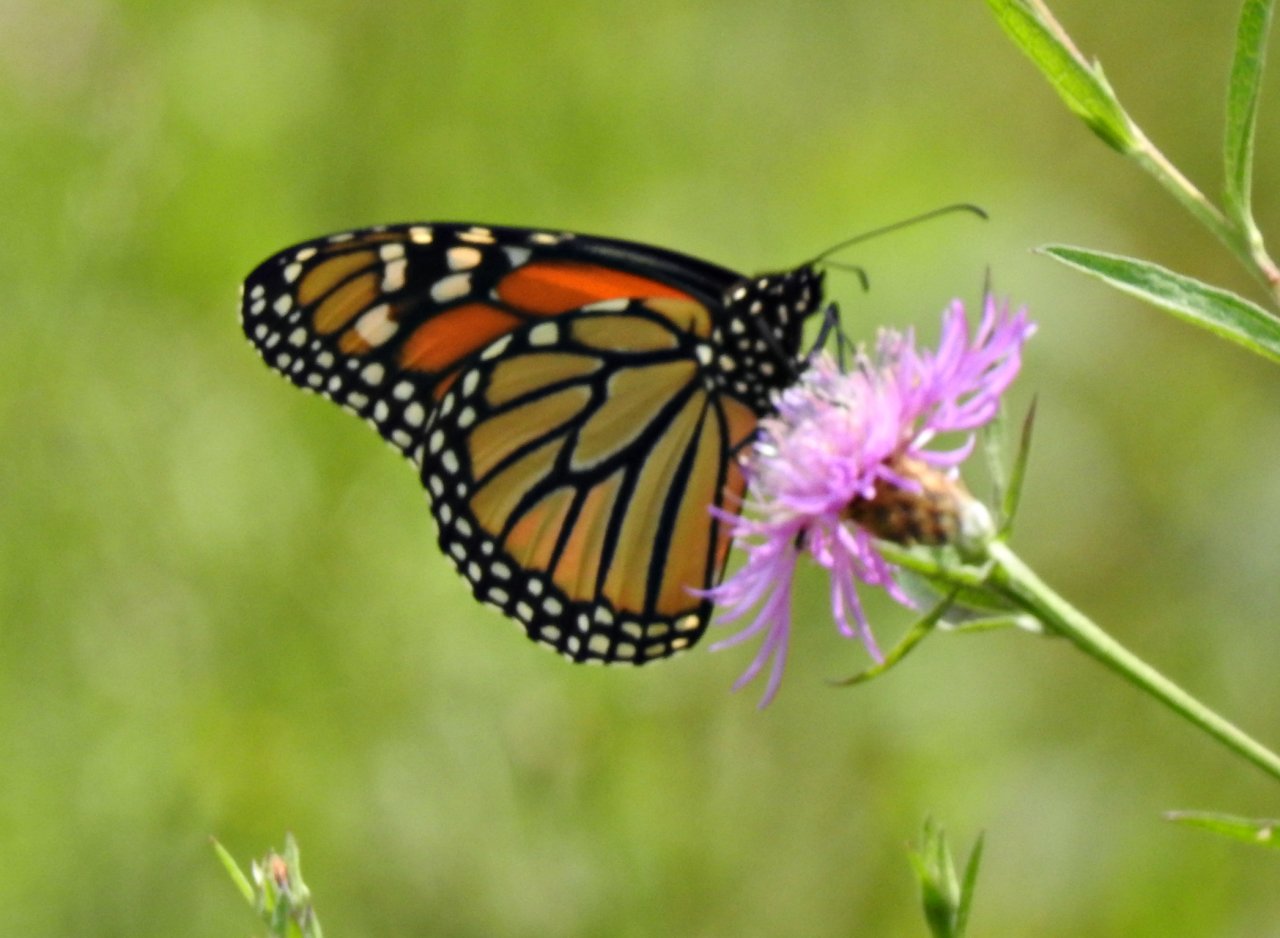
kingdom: Animalia
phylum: Arthropoda
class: Insecta
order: Lepidoptera
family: Nymphalidae
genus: Danaus
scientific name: Danaus plexippus
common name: Monarch
